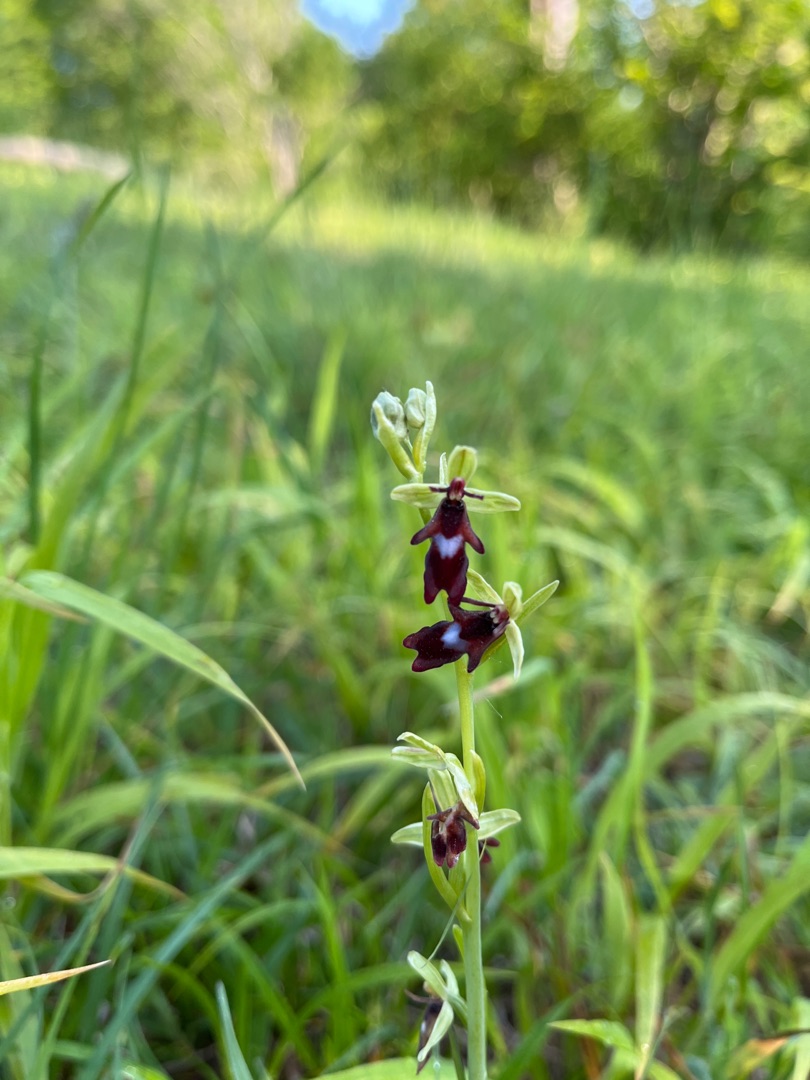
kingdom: Plantae
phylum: Tracheophyta
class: Liliopsida
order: Asparagales
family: Orchidaceae
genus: Ophrys
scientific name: Ophrys insectifera
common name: Flueblomst
